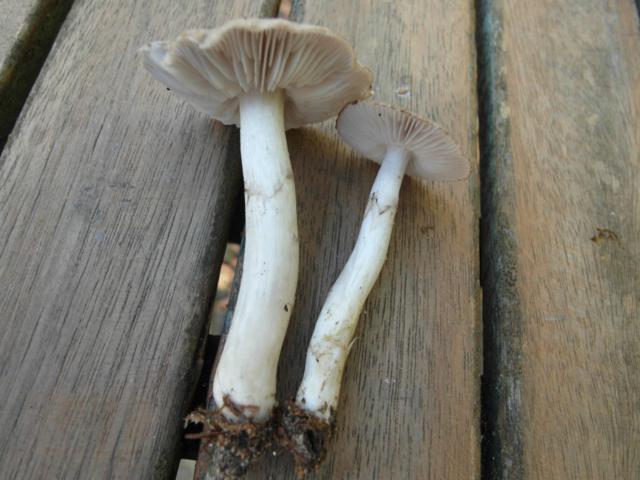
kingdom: Fungi
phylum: Basidiomycota
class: Agaricomycetes
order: Agaricales
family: Tricholomataceae
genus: Tricholoma
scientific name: Tricholoma cingulatum
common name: ring-ridderhat
